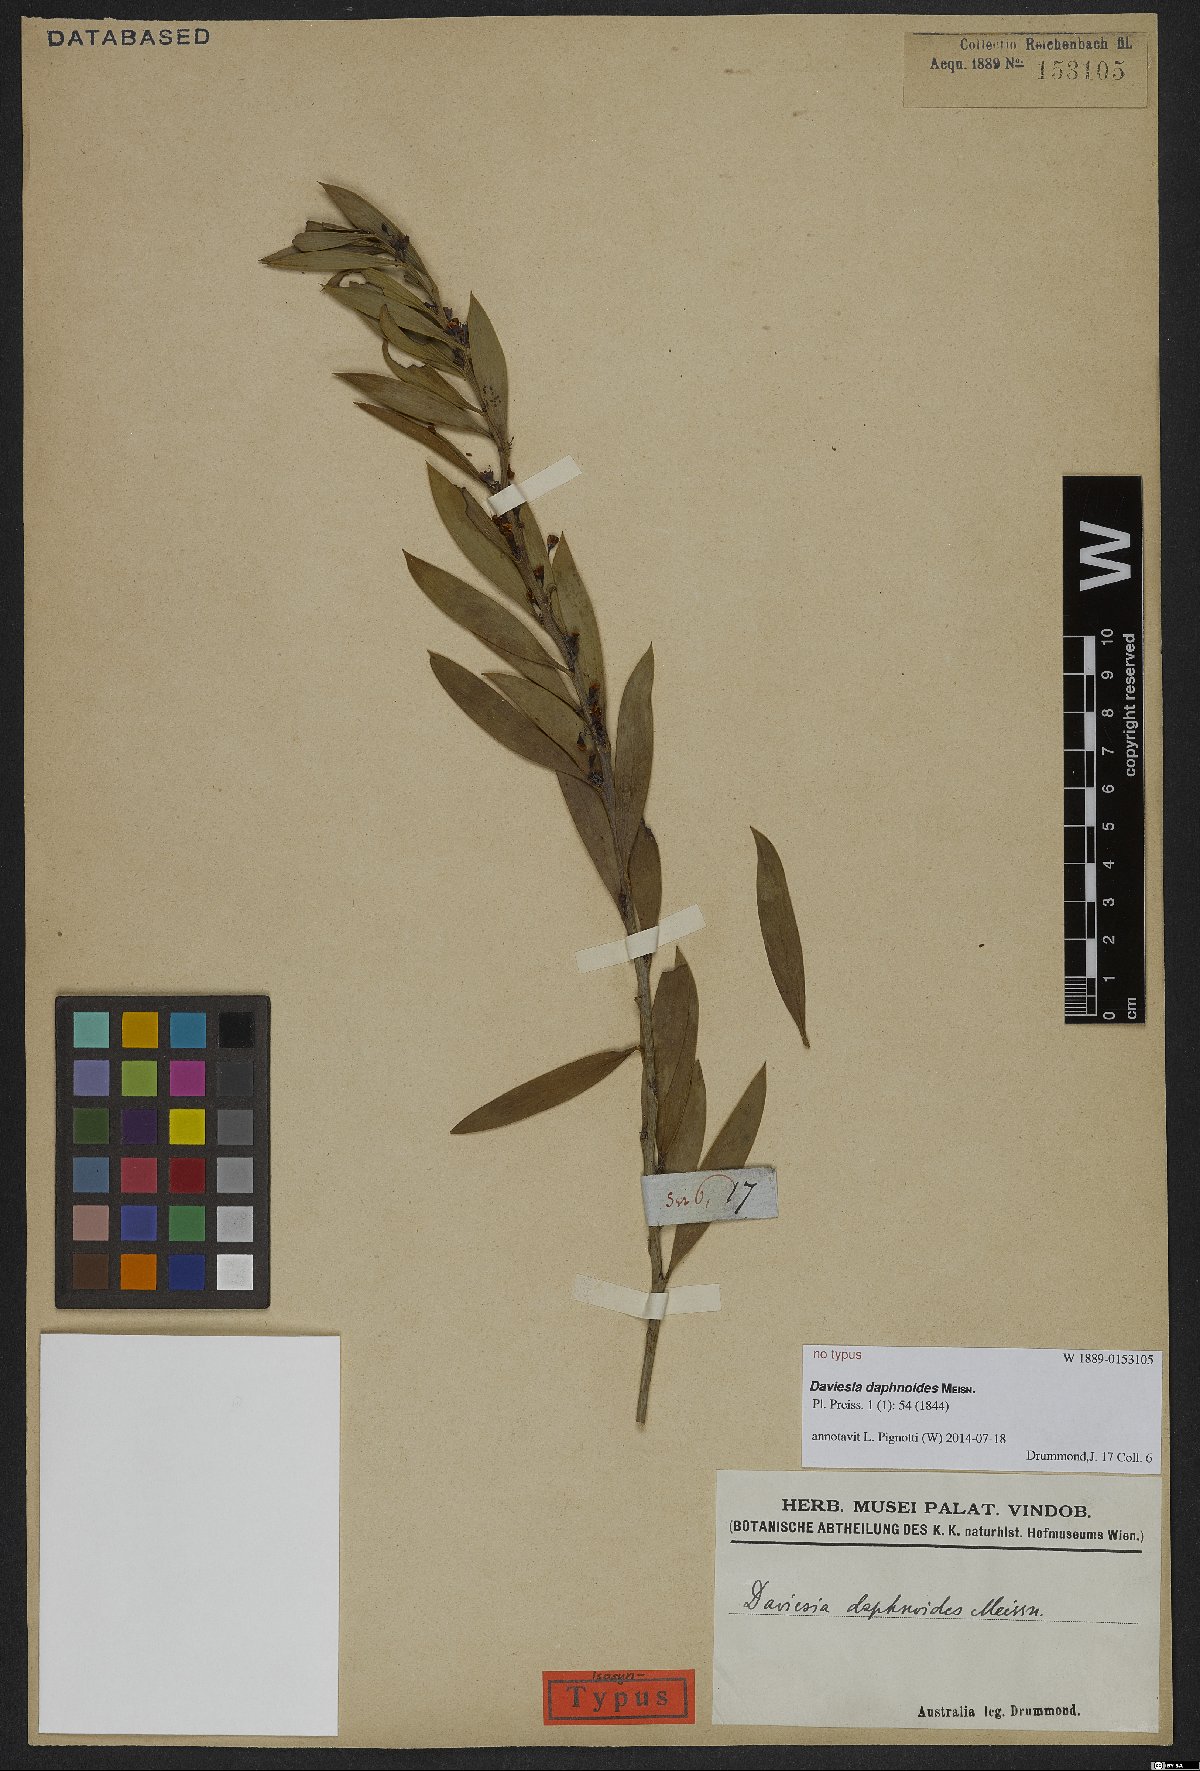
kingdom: Plantae
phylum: Tracheophyta
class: Magnoliopsida
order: Fabales
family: Fabaceae
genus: Daviesia
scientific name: Daviesia daphnoides
